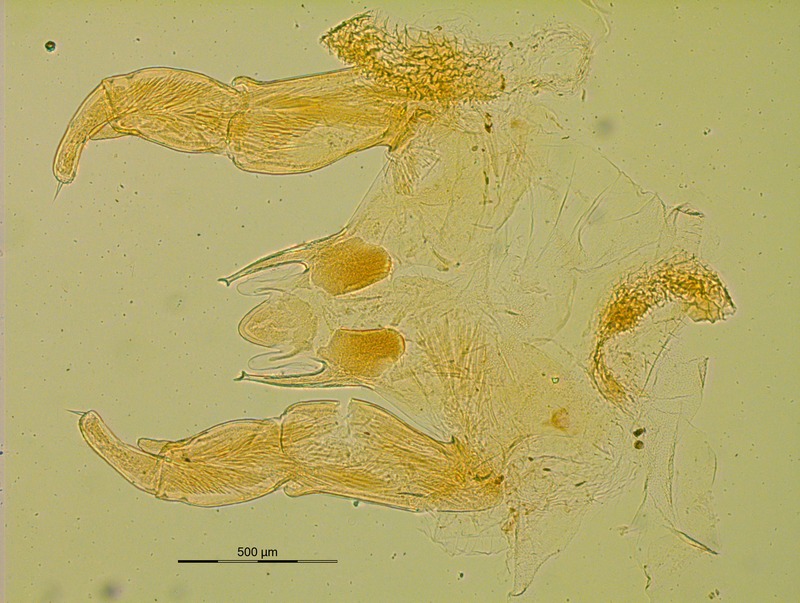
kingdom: Animalia
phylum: Arthropoda
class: Diplopoda
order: Glomerida
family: Glomeridellidae
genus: Typhloglomeris
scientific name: Typhloglomeris coeca
